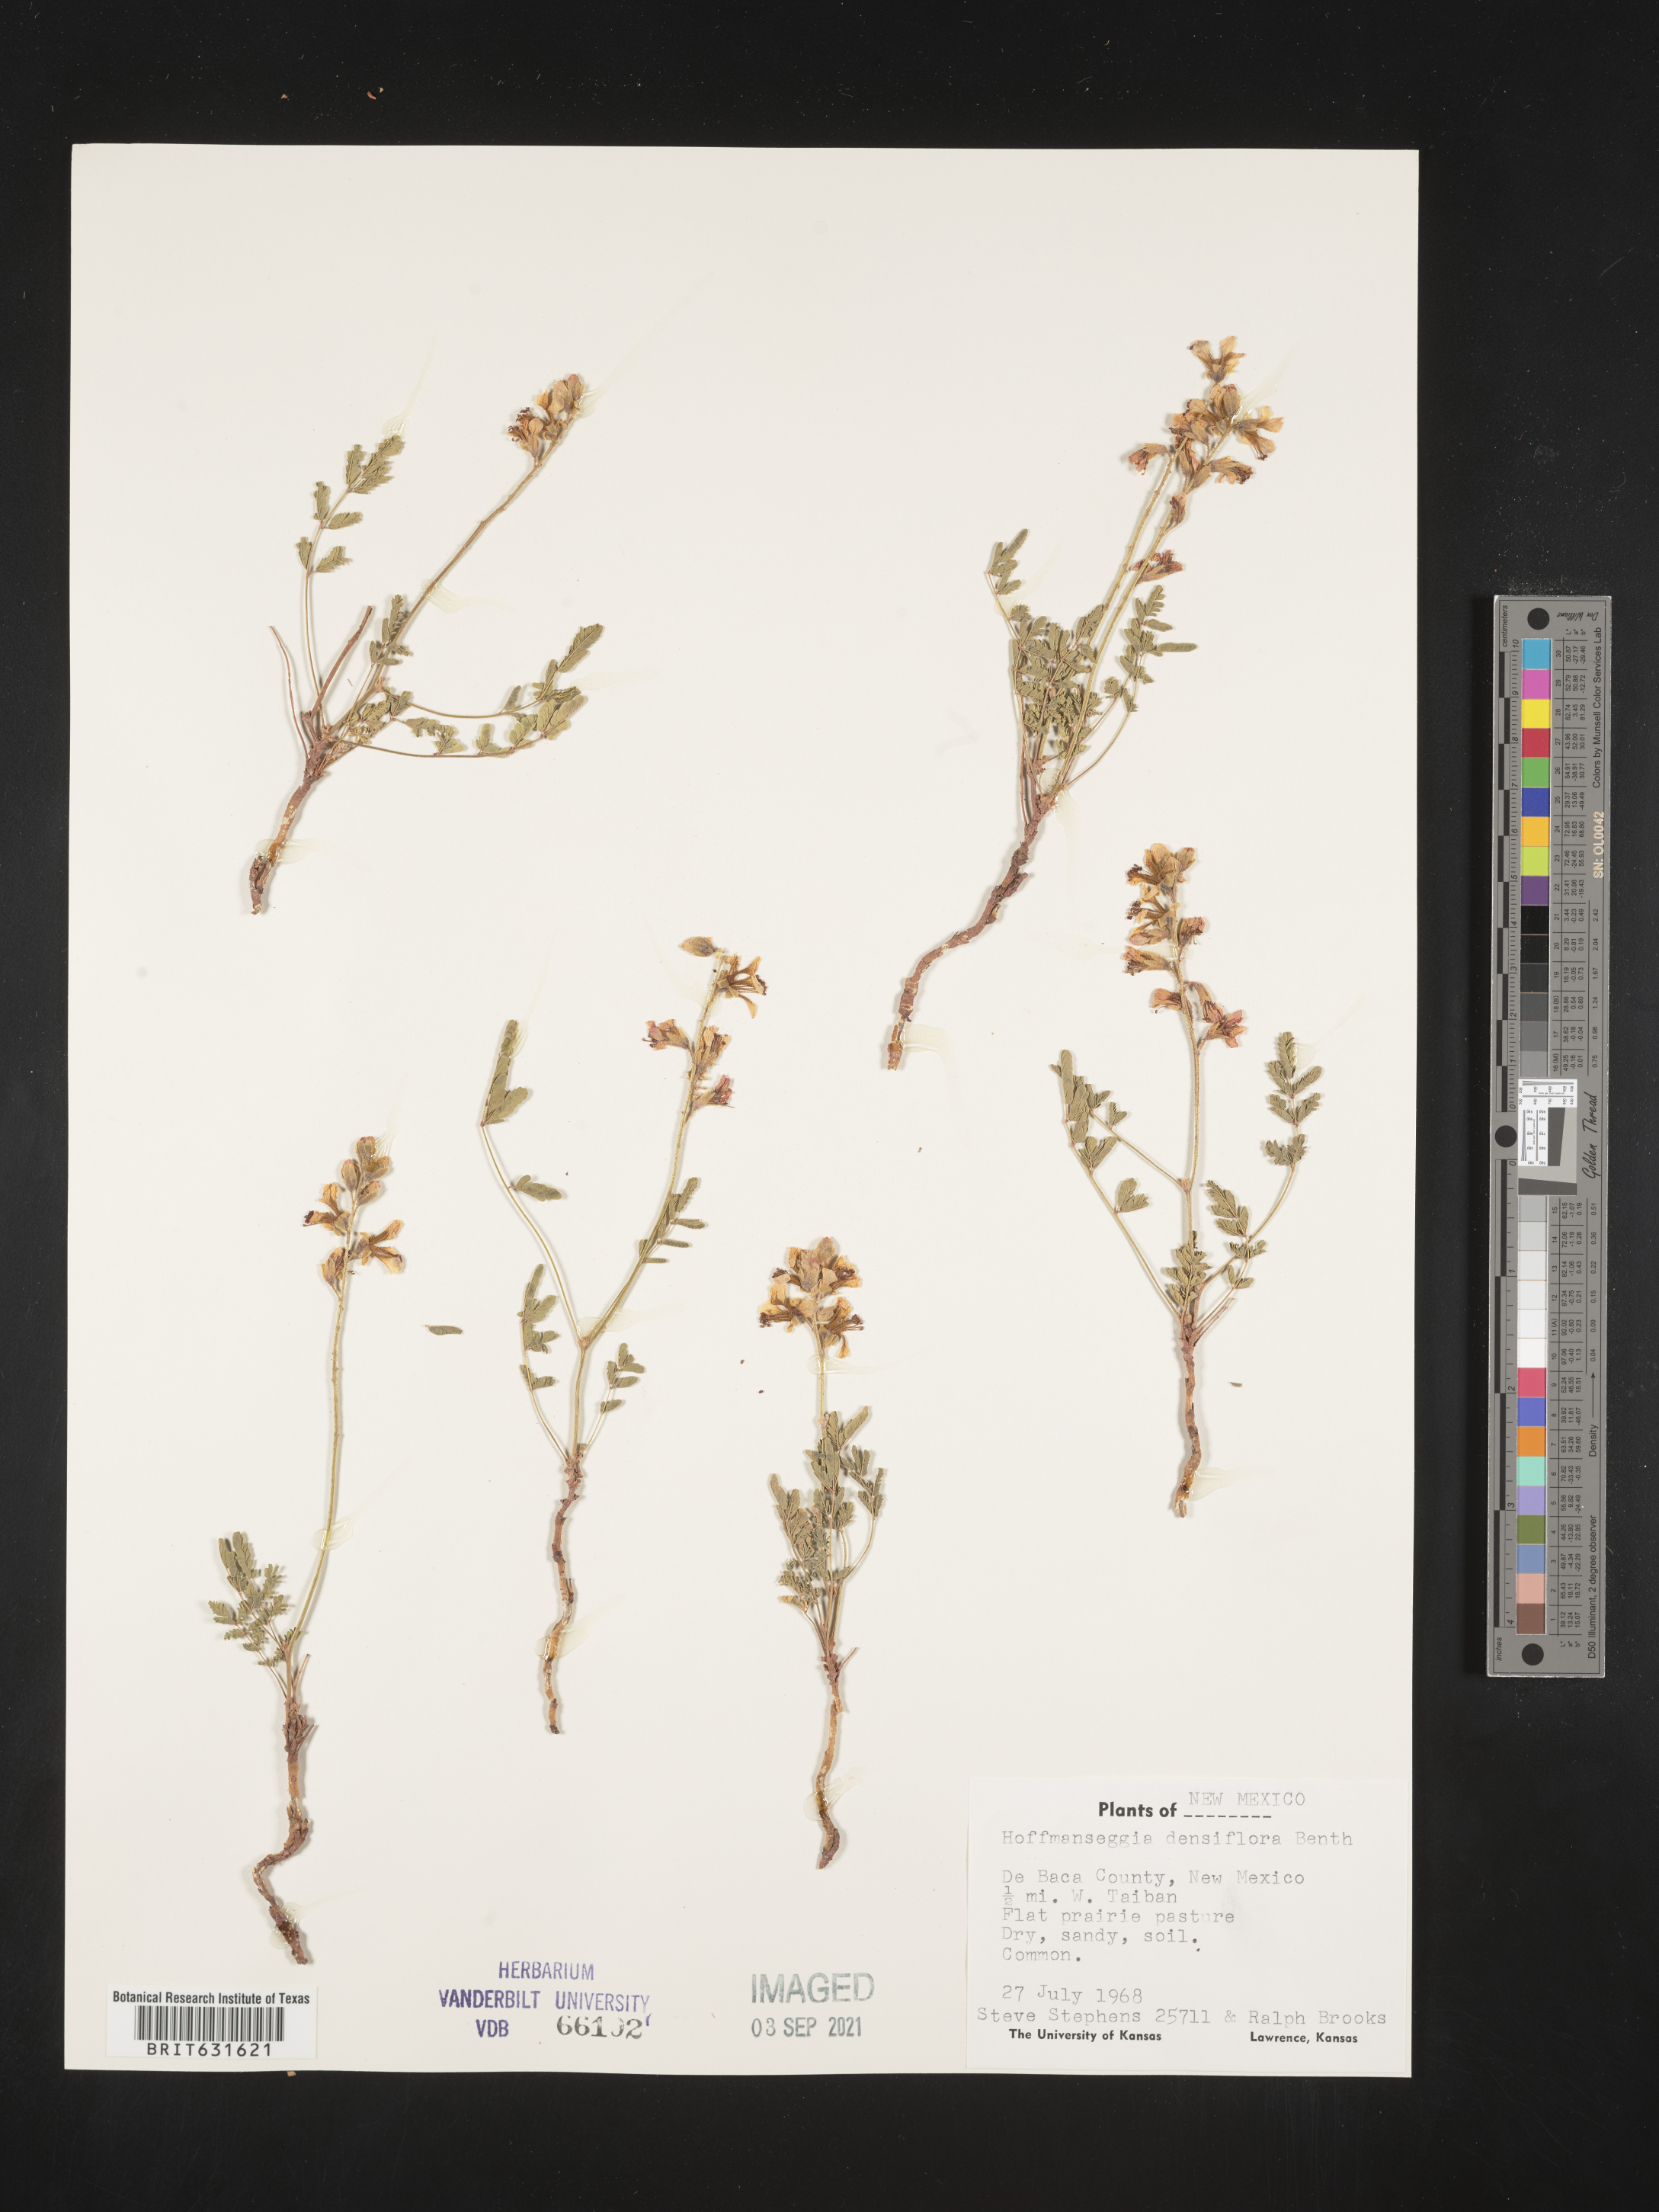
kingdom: Plantae
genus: Hoffmanseggia
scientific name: Hoffmanseggia
